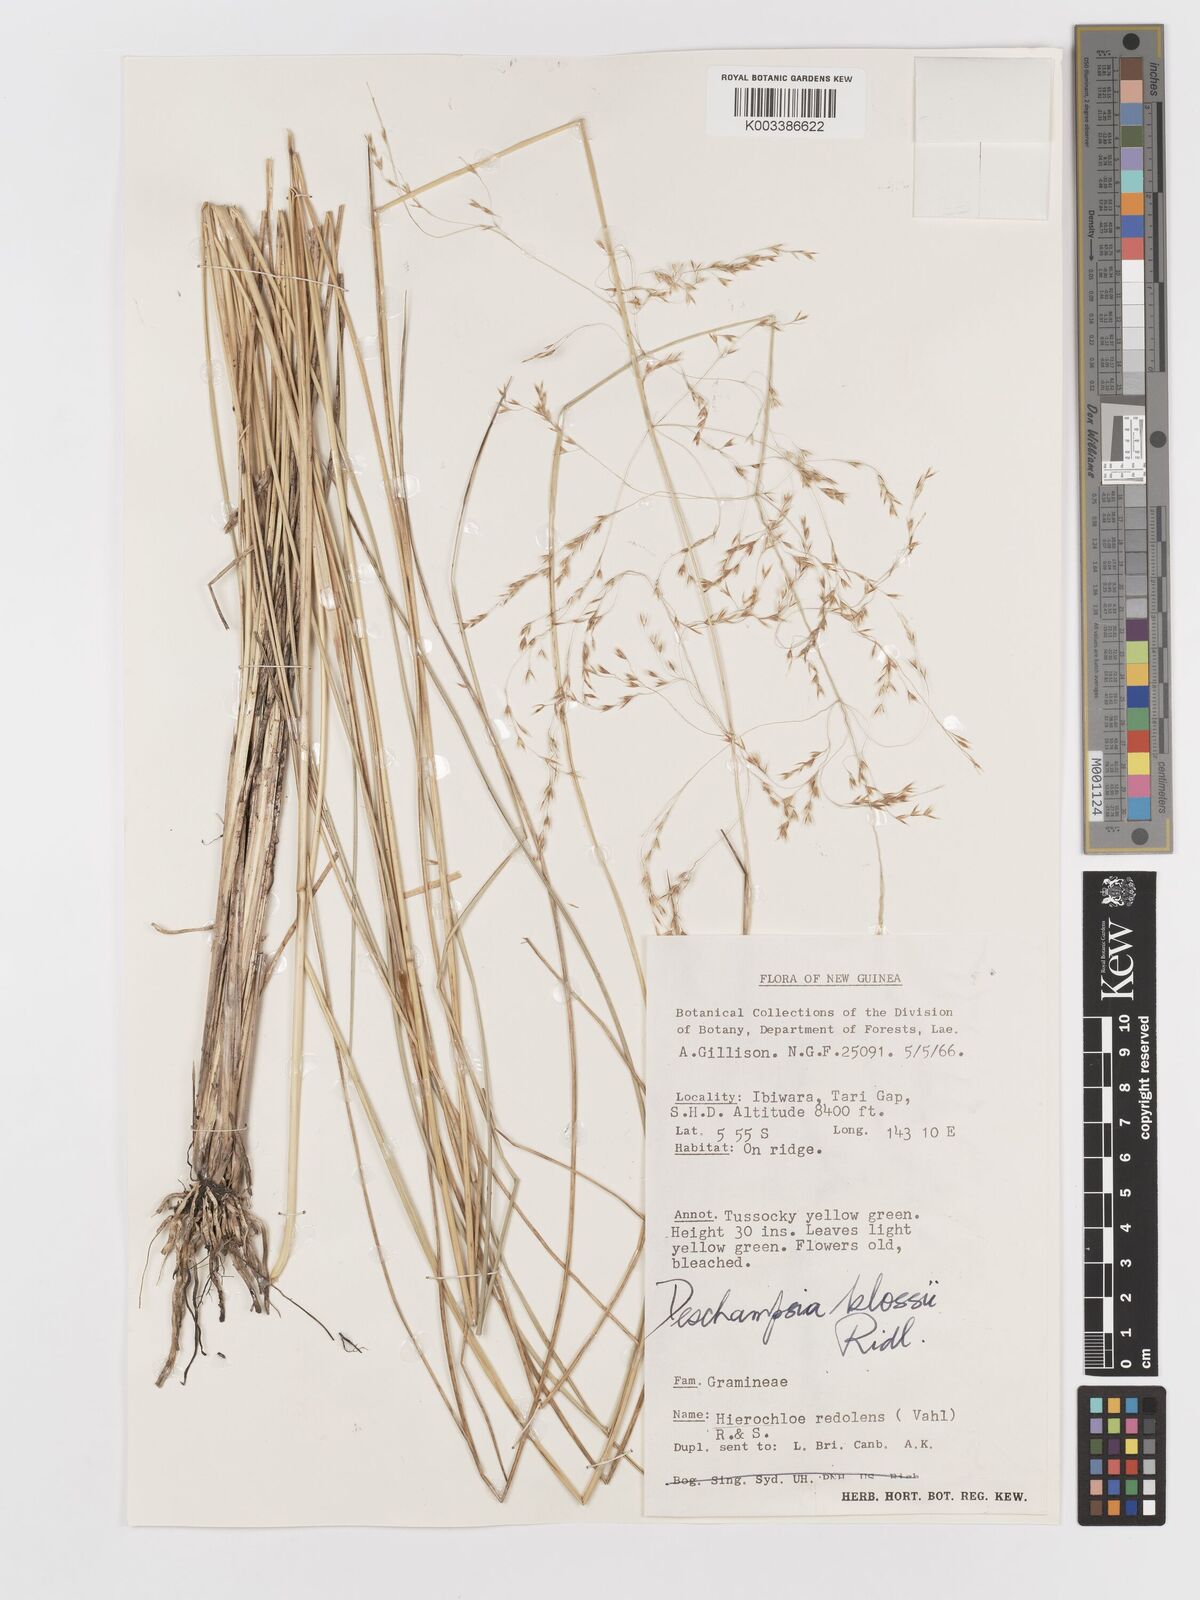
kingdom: Plantae
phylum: Tracheophyta
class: Liliopsida
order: Poales
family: Poaceae
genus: Deschampsia
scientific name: Deschampsia klossii
